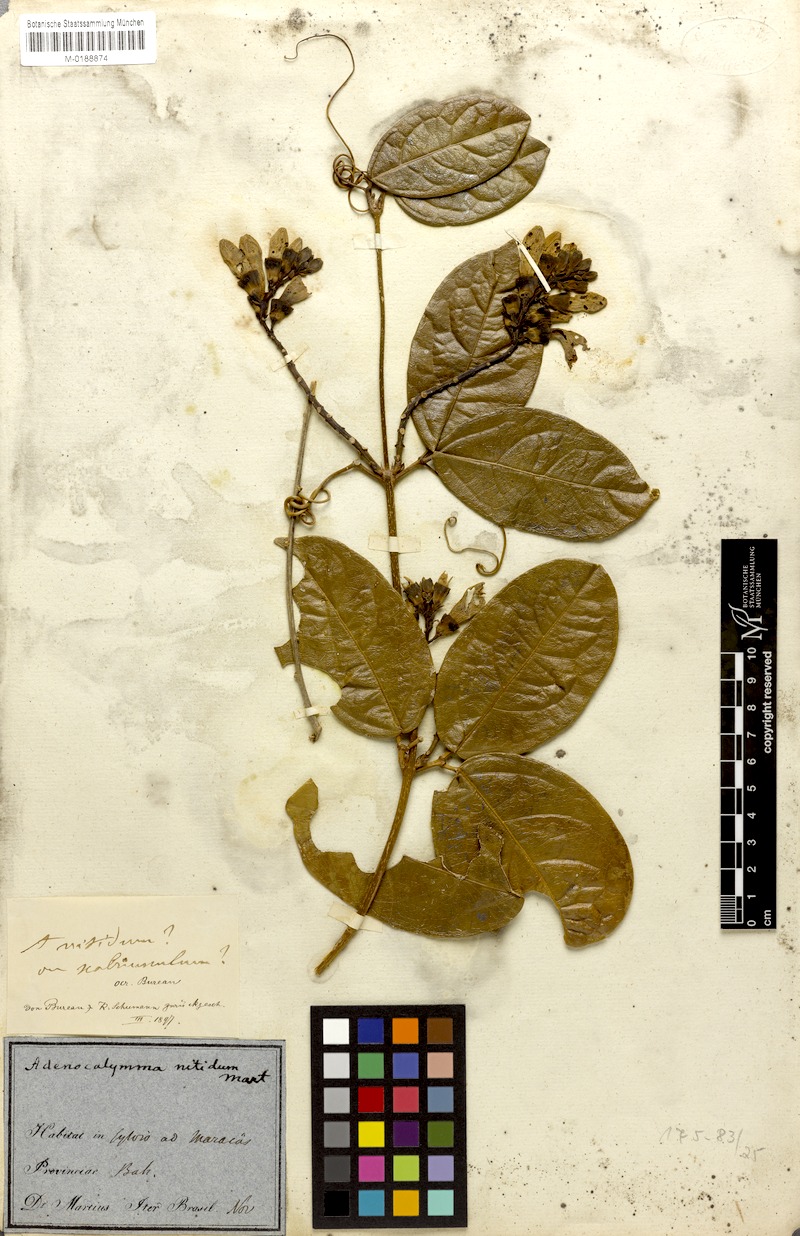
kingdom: Plantae
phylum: Tracheophyta
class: Magnoliopsida
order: Lamiales
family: Bignoniaceae
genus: Adenocalymma
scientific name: Adenocalymma acutissimum
